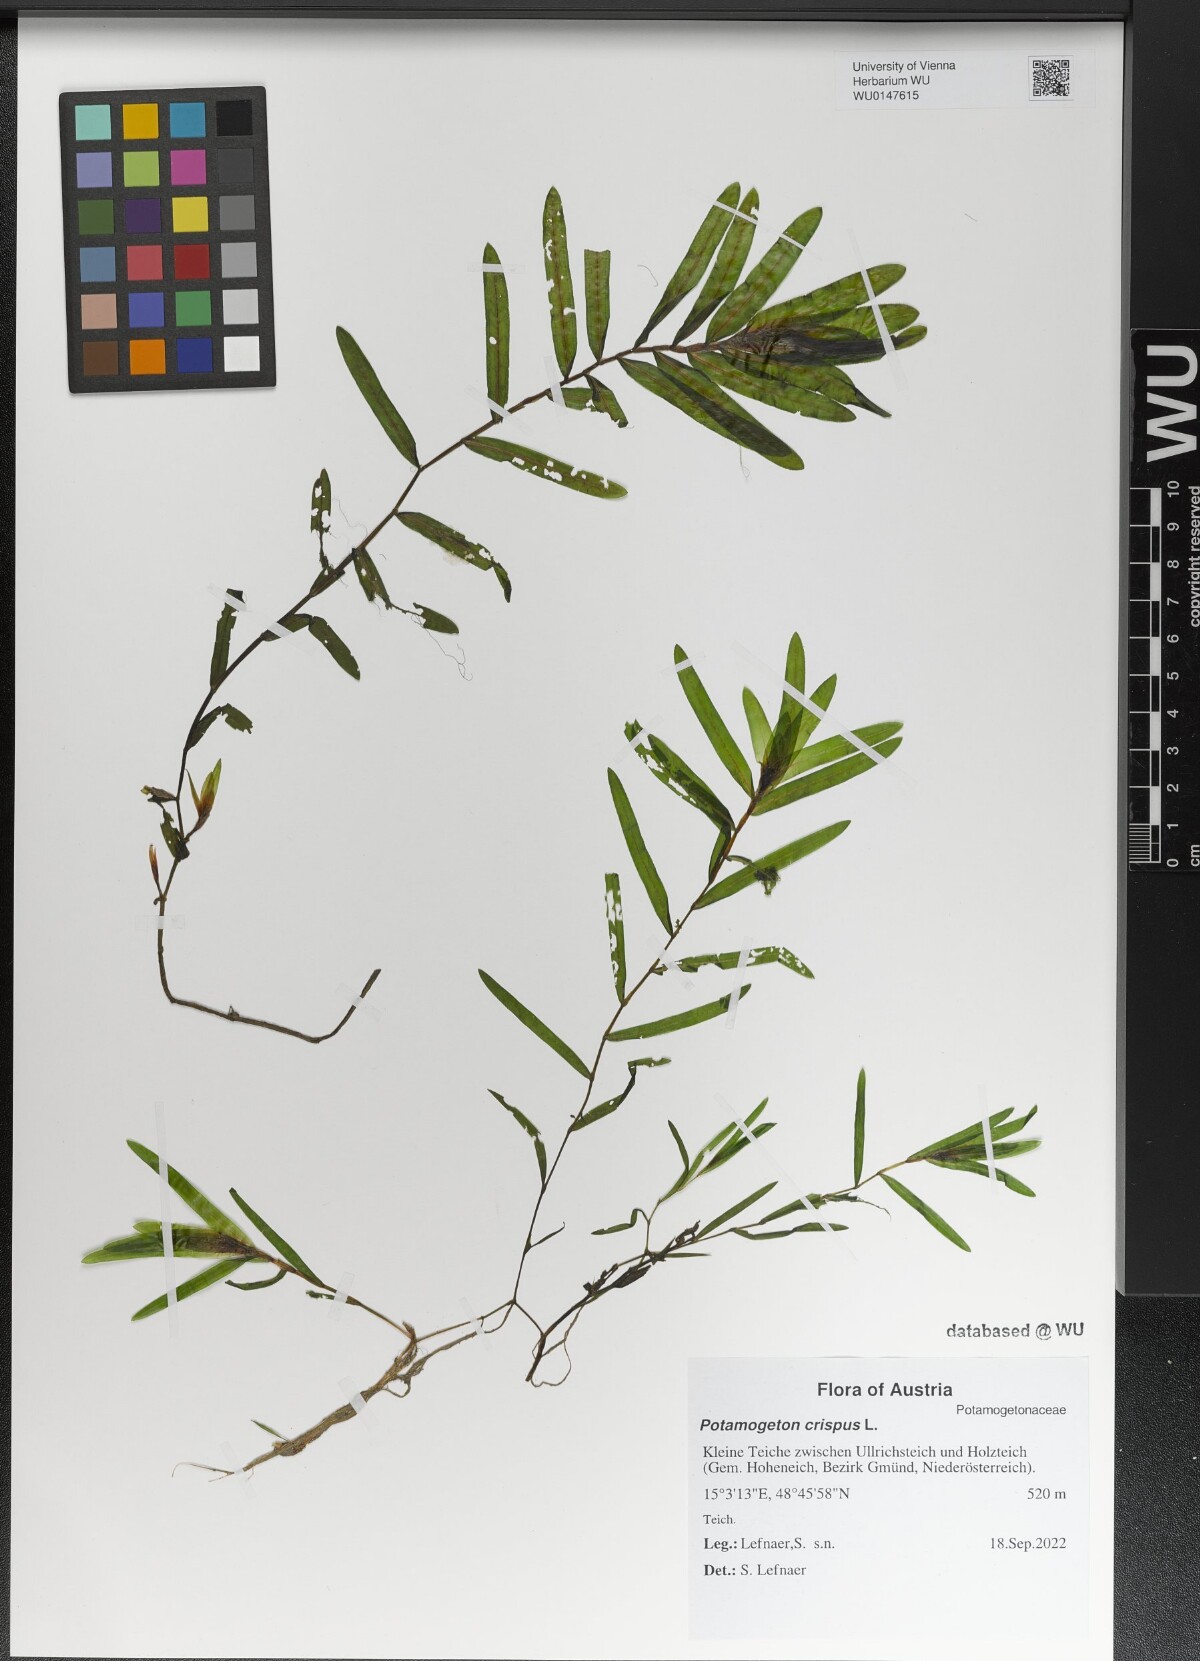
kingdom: Plantae
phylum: Tracheophyta
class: Liliopsida
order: Alismatales
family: Potamogetonaceae
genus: Potamogeton
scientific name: Potamogeton crispus
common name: Curled pondweed
